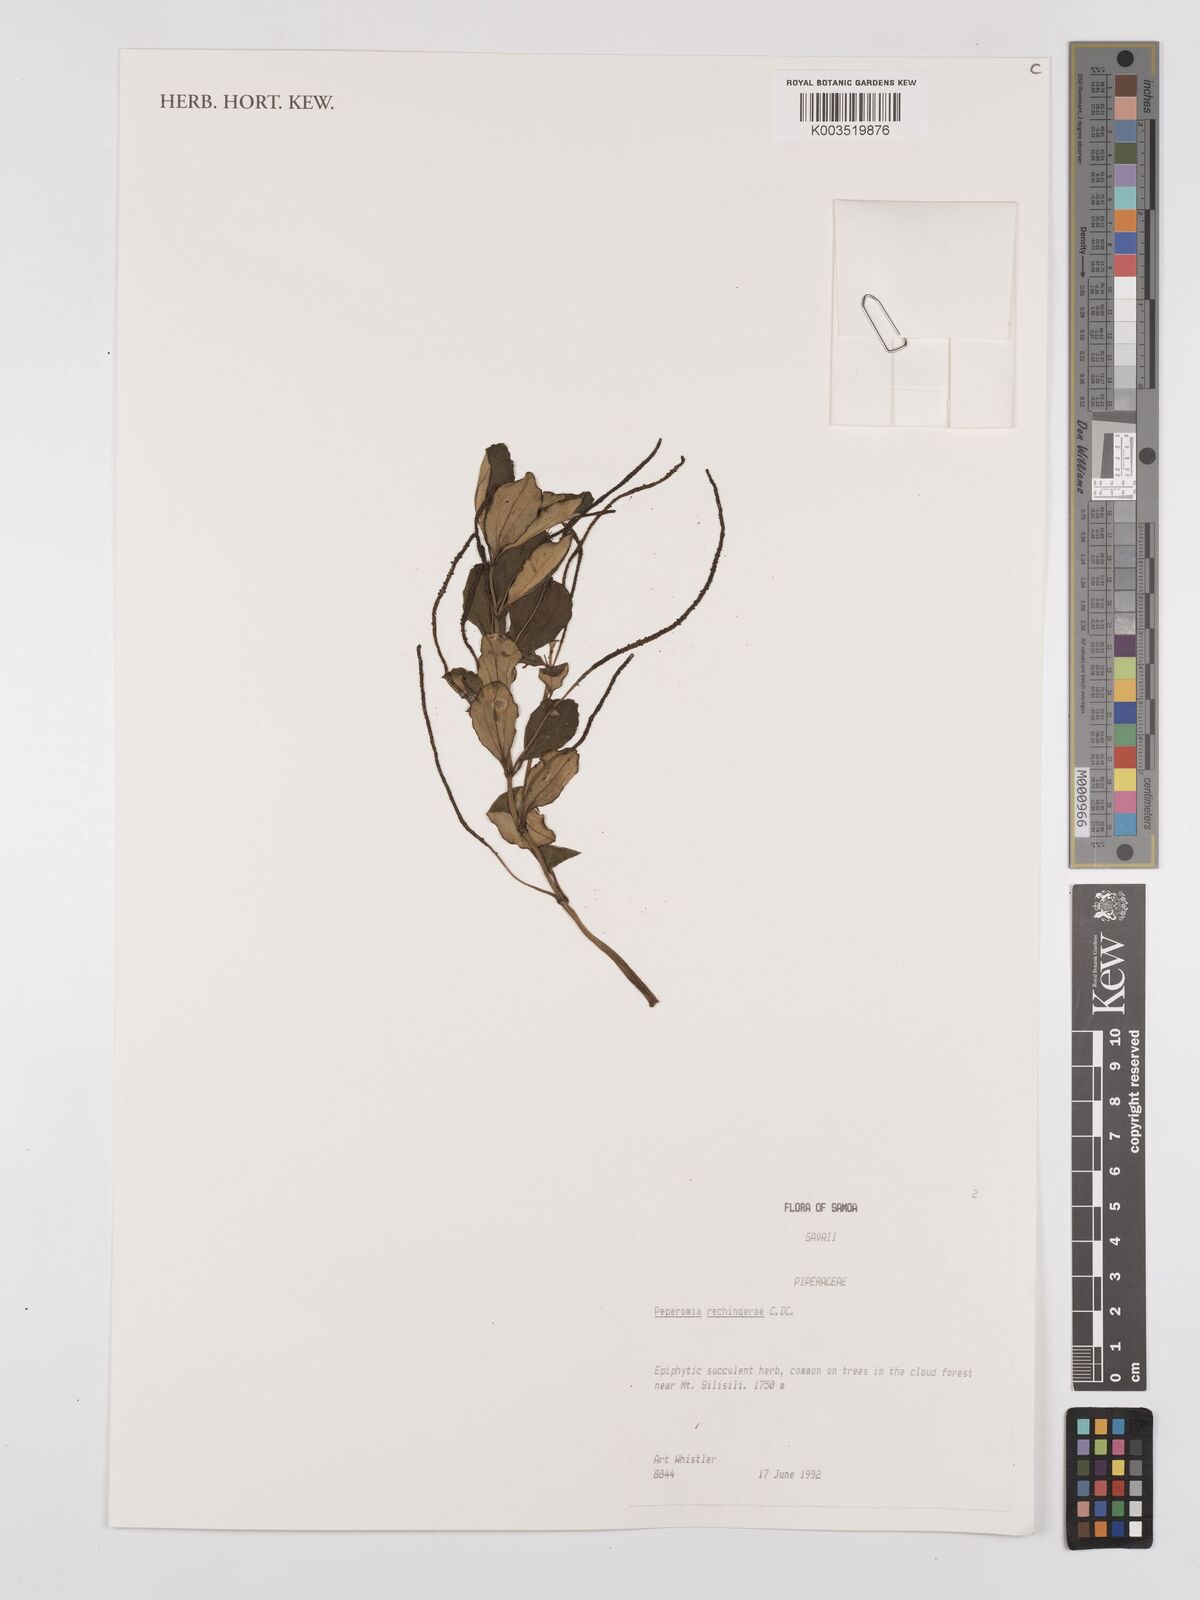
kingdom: Plantae
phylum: Tracheophyta
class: Magnoliopsida
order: Piperales
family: Piperaceae
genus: Peperomia
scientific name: Peperomia rechingerae
